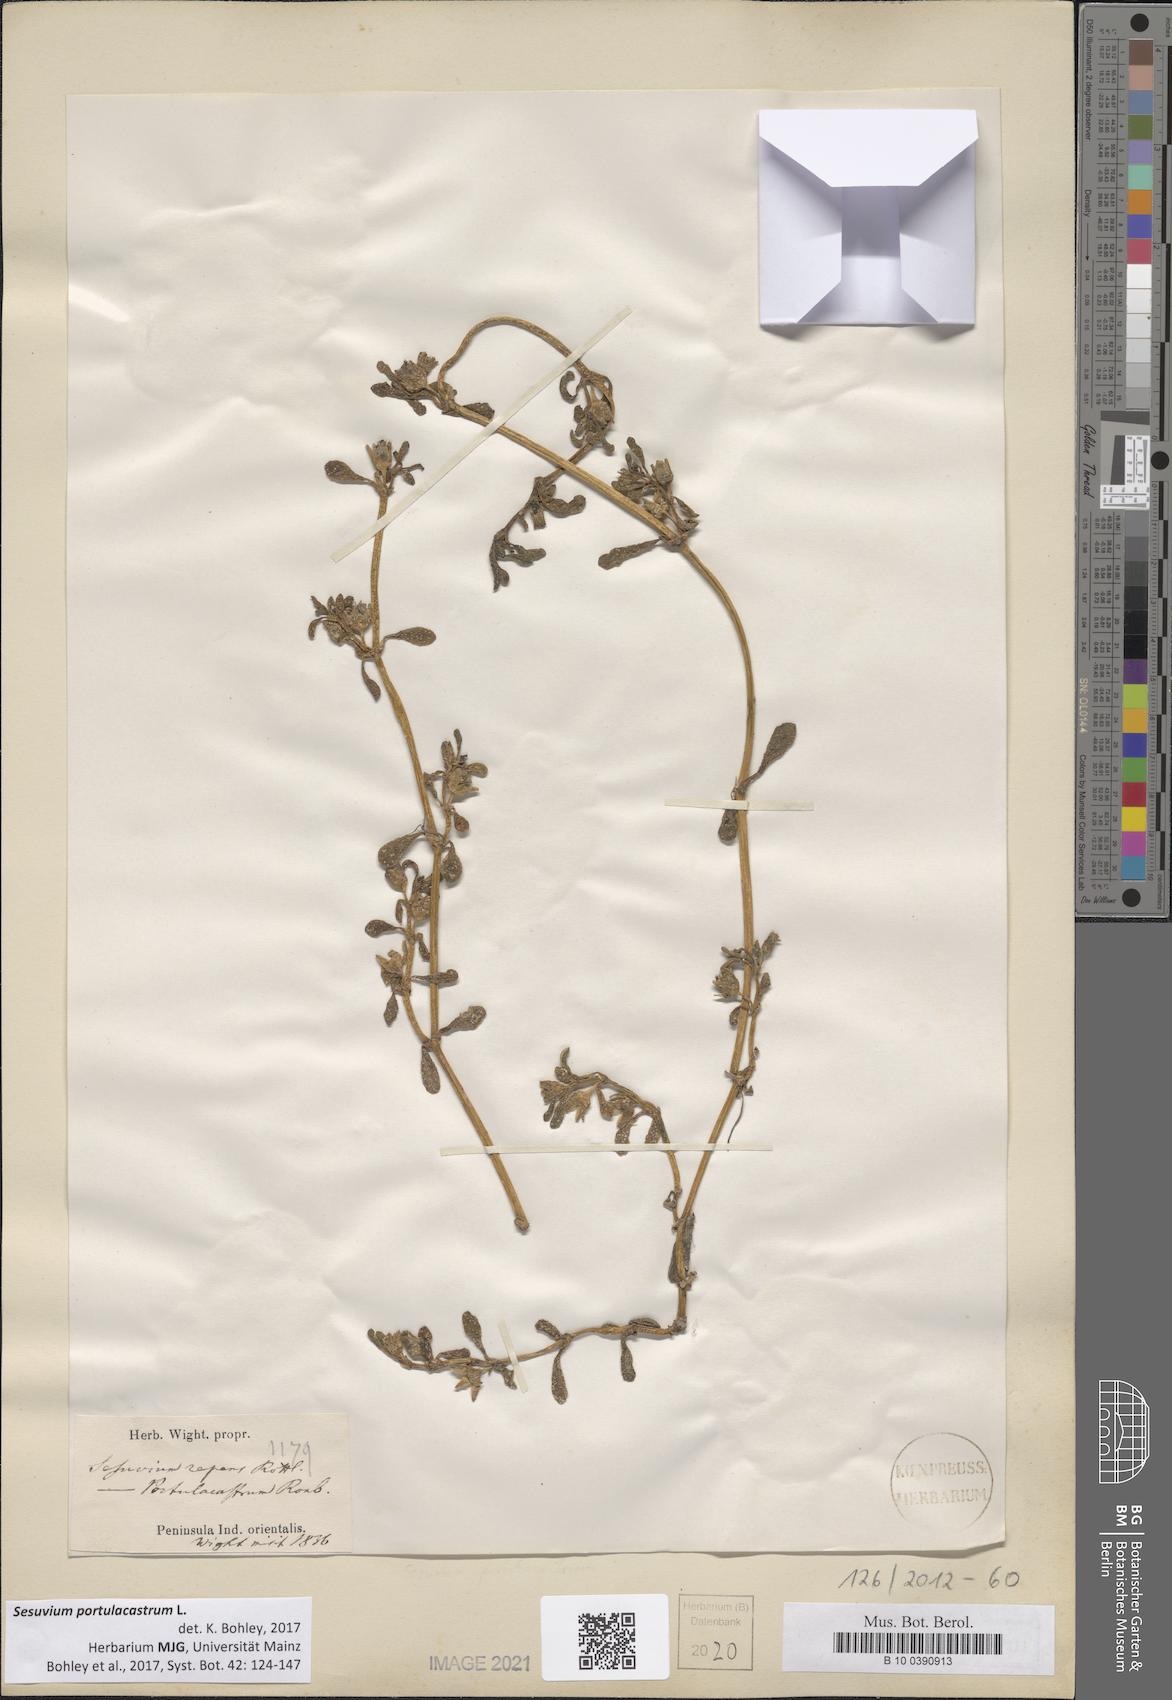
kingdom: Plantae
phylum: Tracheophyta
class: Magnoliopsida
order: Caryophyllales
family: Aizoaceae
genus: Sesuvium
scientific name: Sesuvium portulacastrum
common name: Sea-purslane
